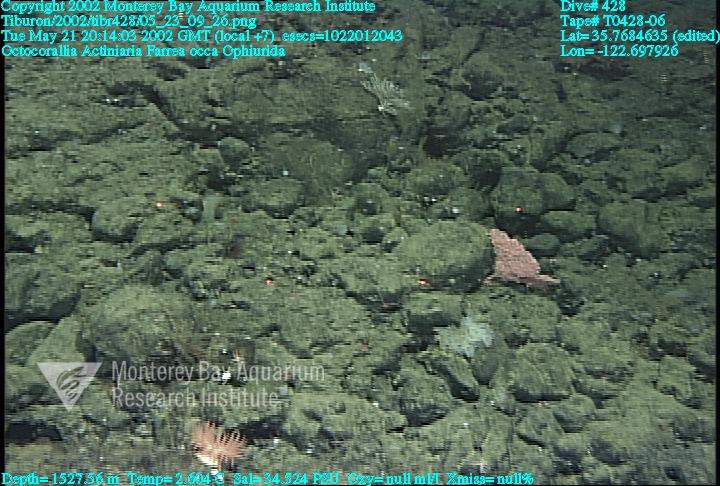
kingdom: Animalia
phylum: Porifera
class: Hexactinellida
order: Sceptrulophora
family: Farreidae
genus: Farrea
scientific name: Farrea occa
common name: Reversed glass sponge
